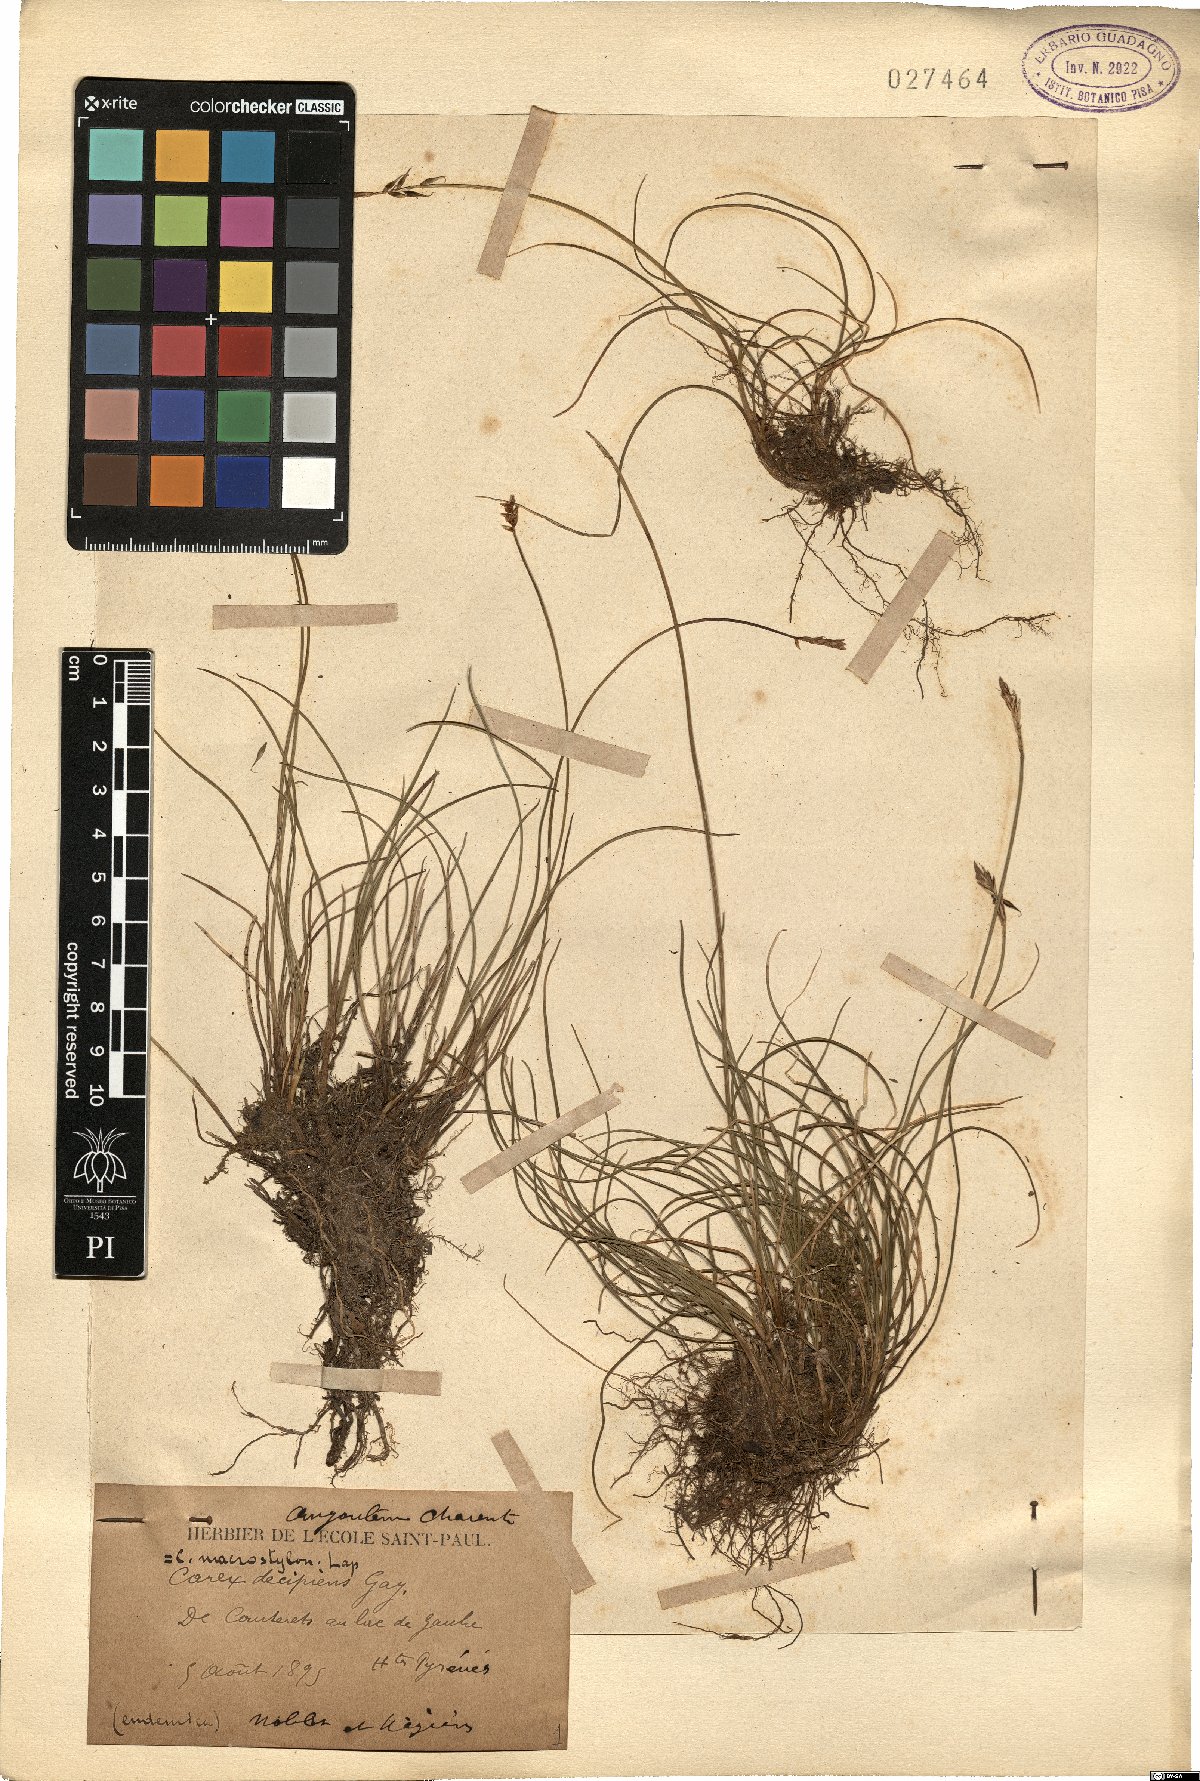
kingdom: Plantae
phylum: Tracheophyta
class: Liliopsida
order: Poales
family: Cyperaceae
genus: Carex
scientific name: Carex macrostylos
